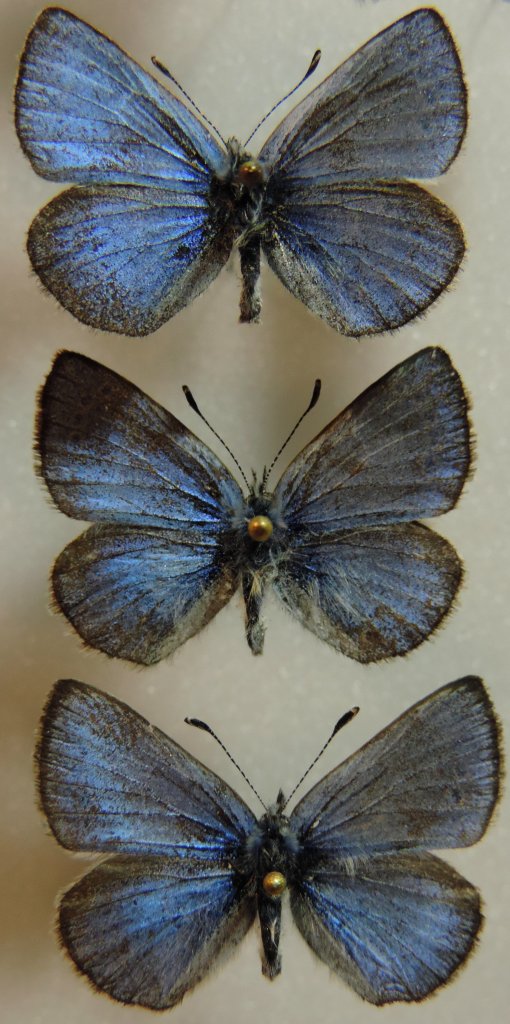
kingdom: Animalia
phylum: Arthropoda
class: Insecta
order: Lepidoptera
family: Lycaenidae
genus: Glaucopsyche
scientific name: Glaucopsyche lygdamus
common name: Silvery Blue
